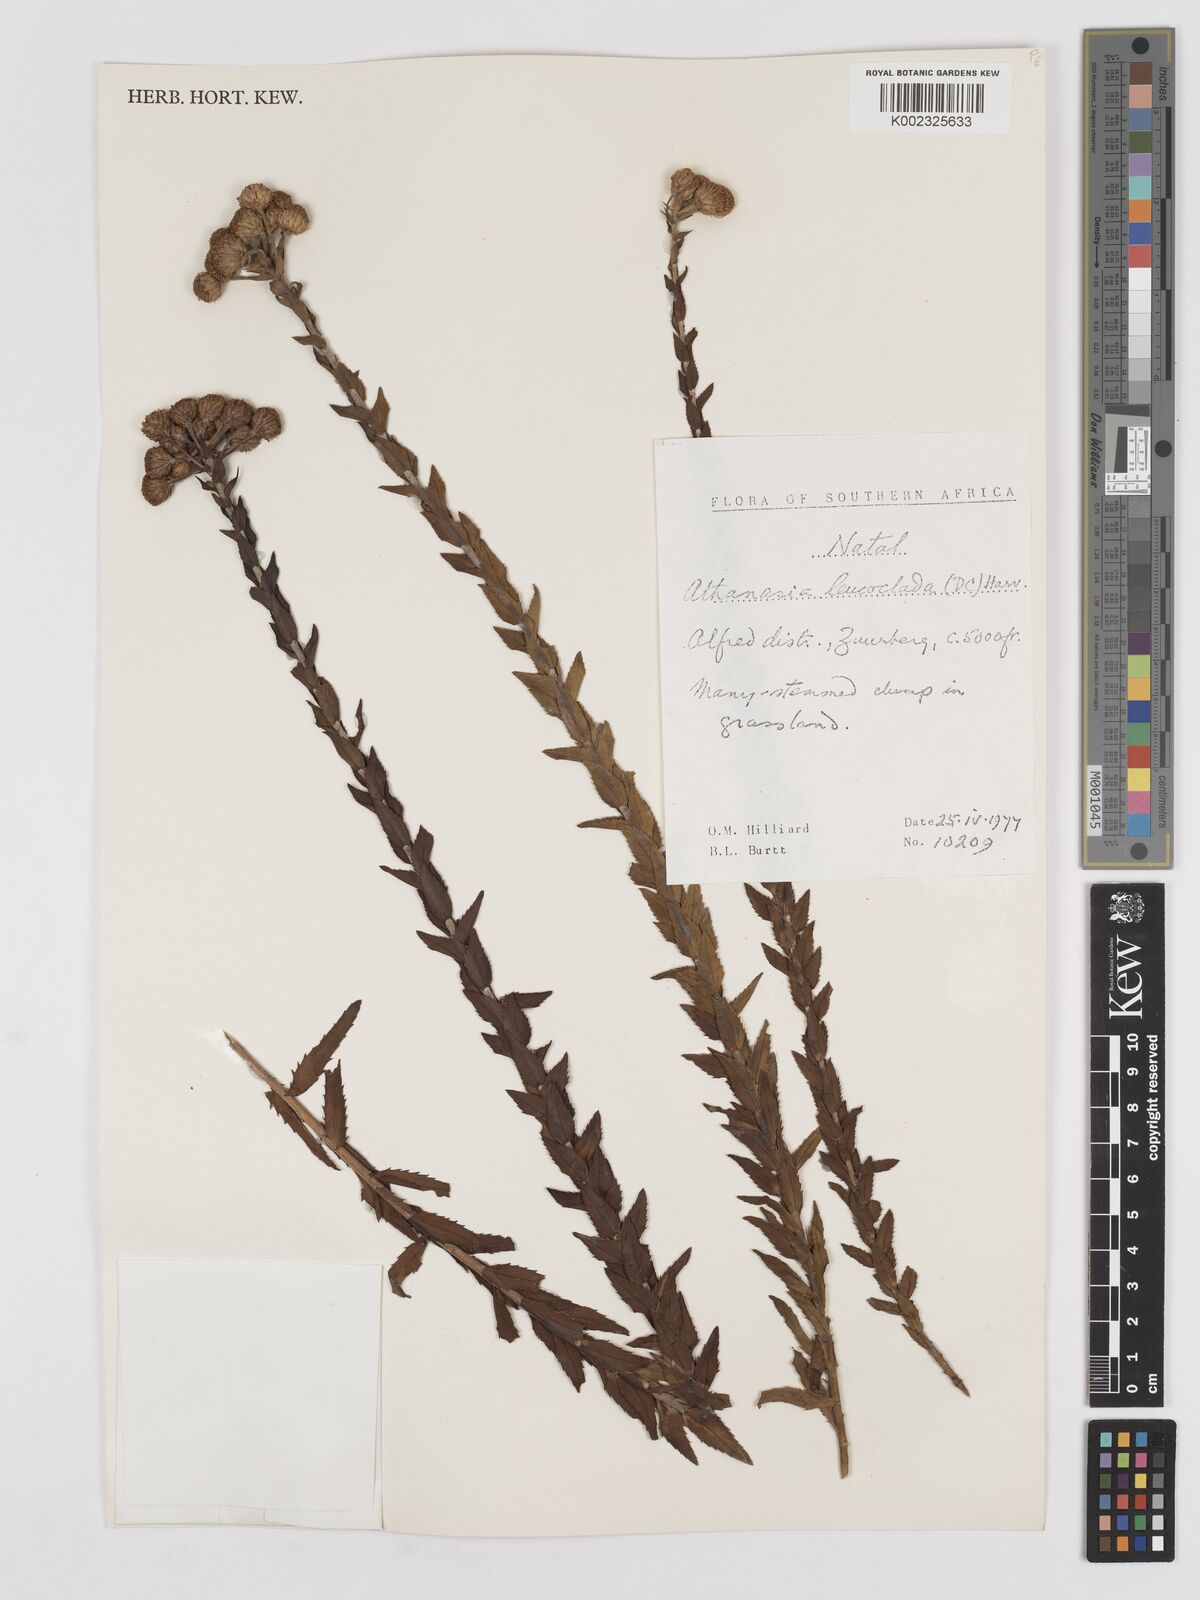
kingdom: Plantae
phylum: Tracheophyta
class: Magnoliopsida
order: Asterales
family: Asteraceae
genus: Inulanthera
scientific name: Inulanthera leucoclada
